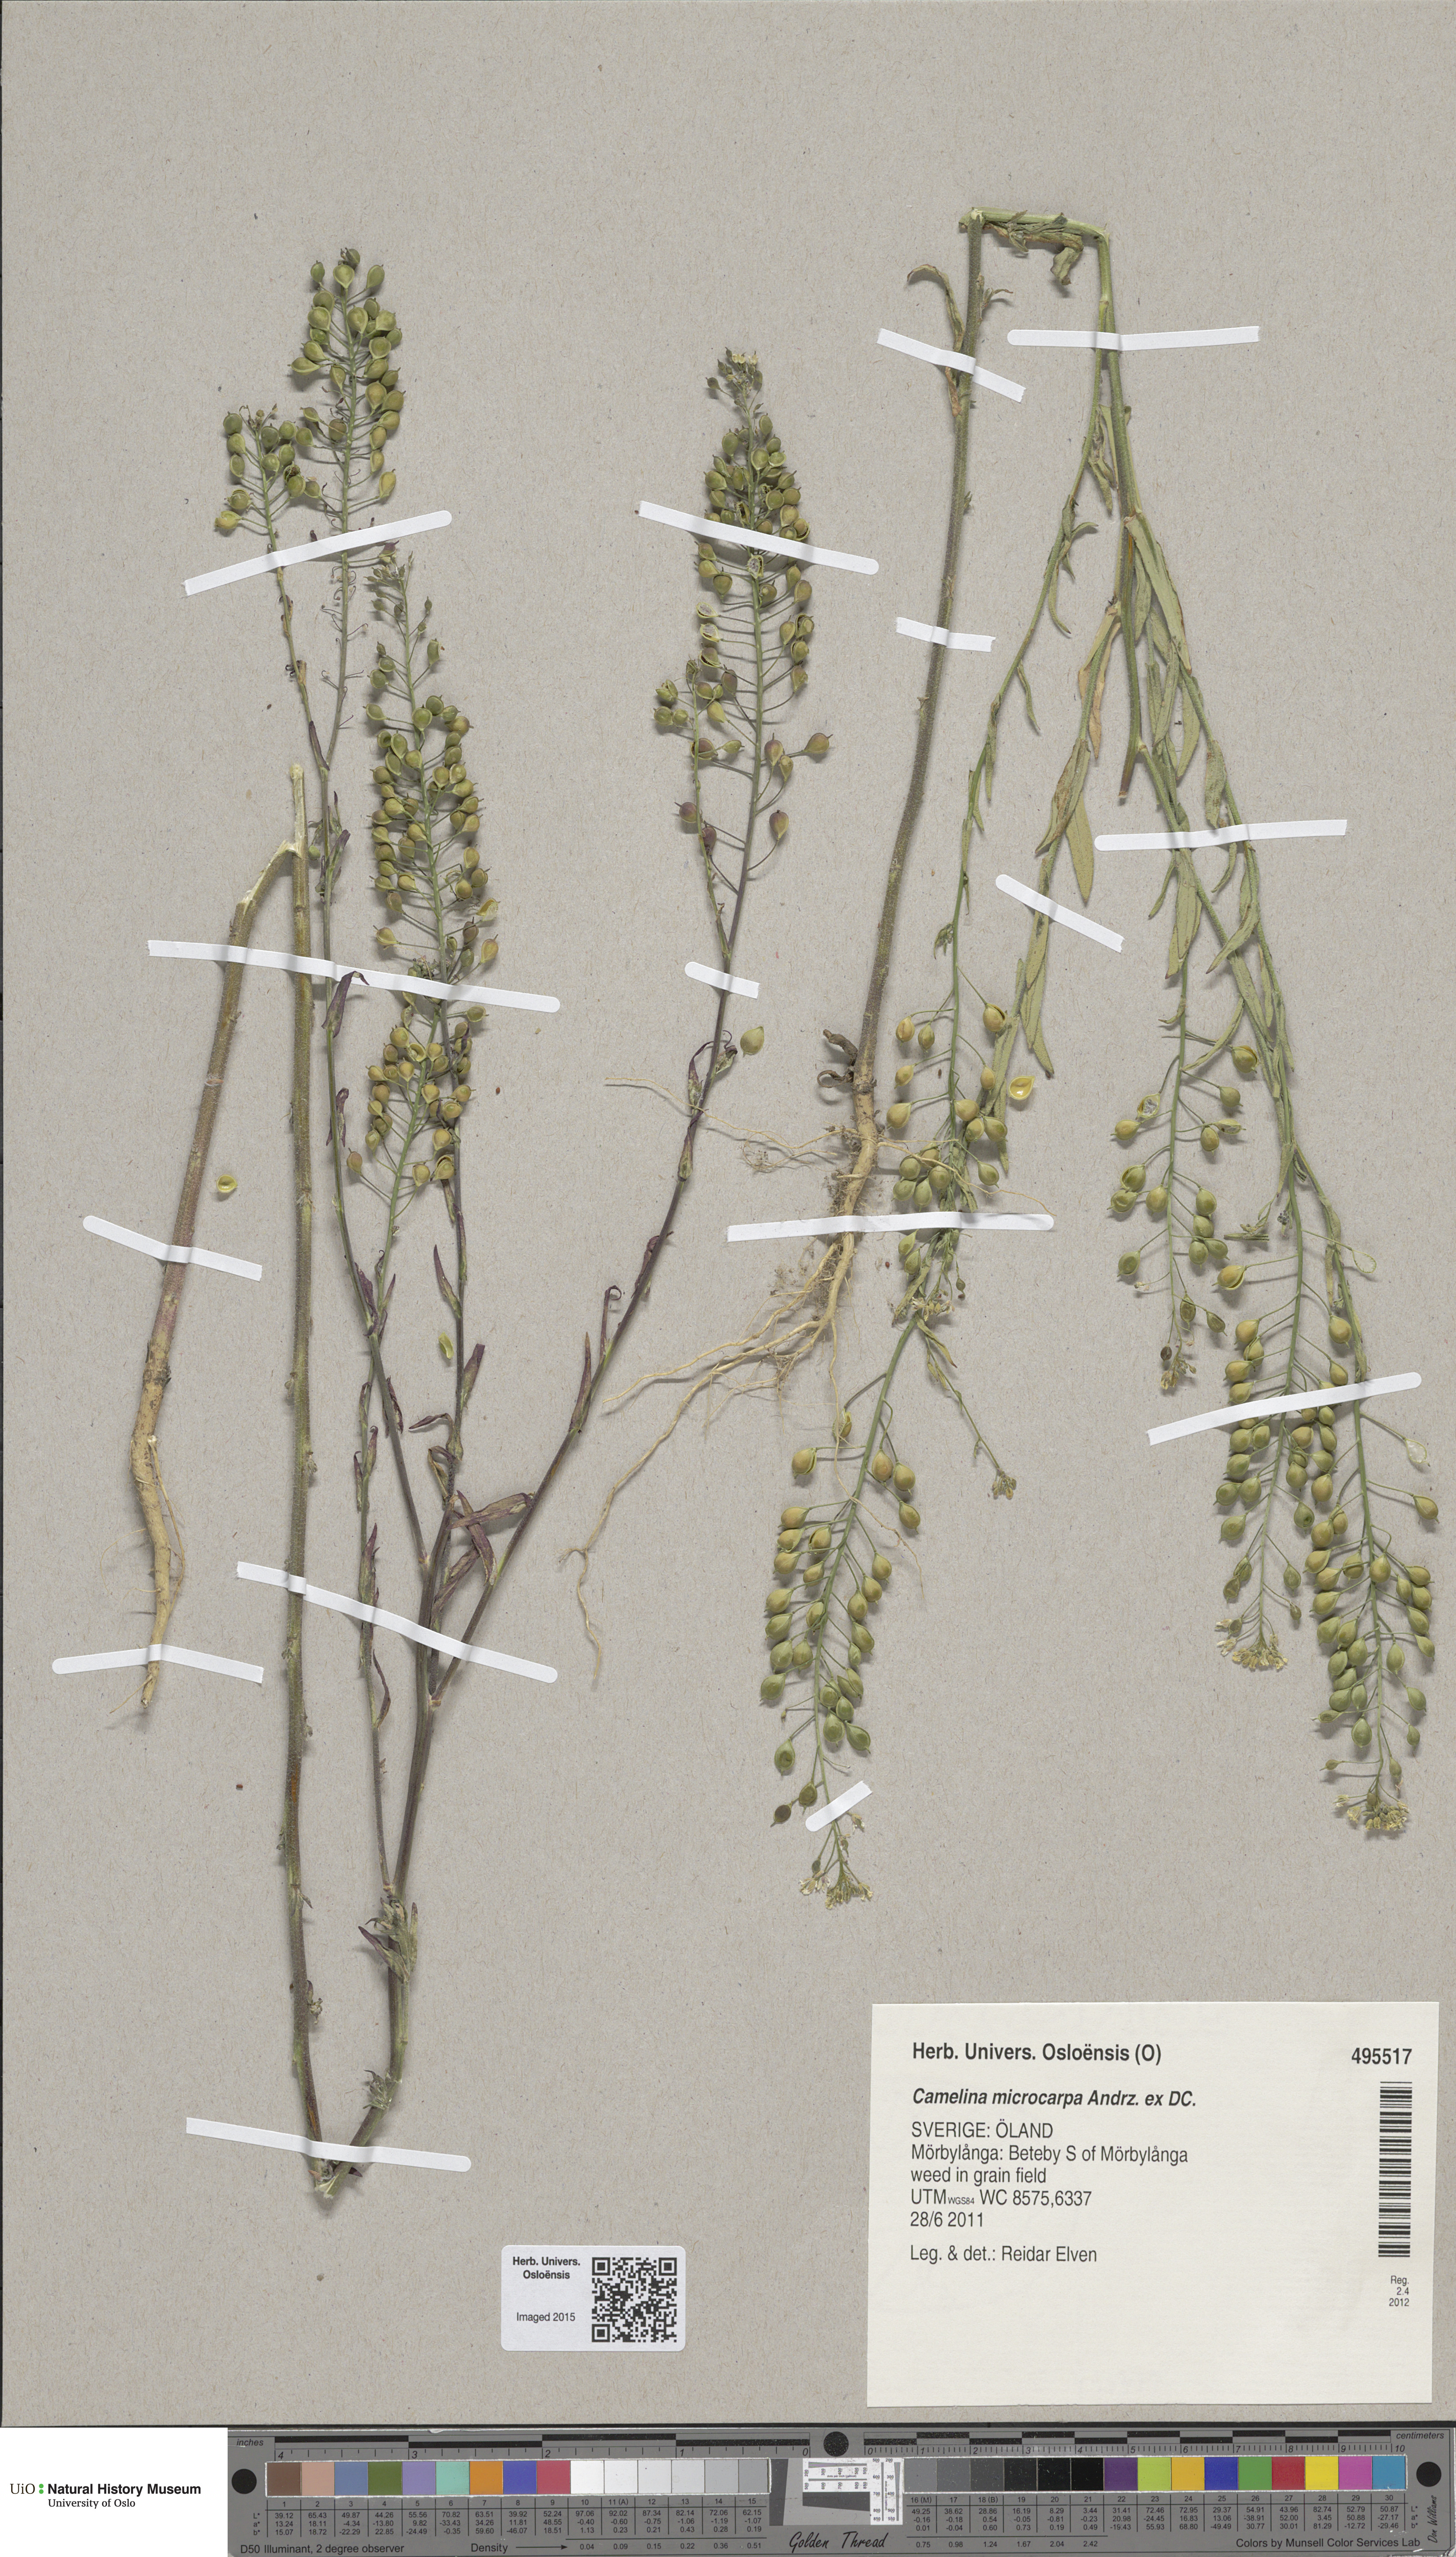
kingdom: Plantae
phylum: Tracheophyta
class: Magnoliopsida
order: Brassicales
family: Brassicaceae
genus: Camelina
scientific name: Camelina sativa
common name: Gold-of-pleasure
